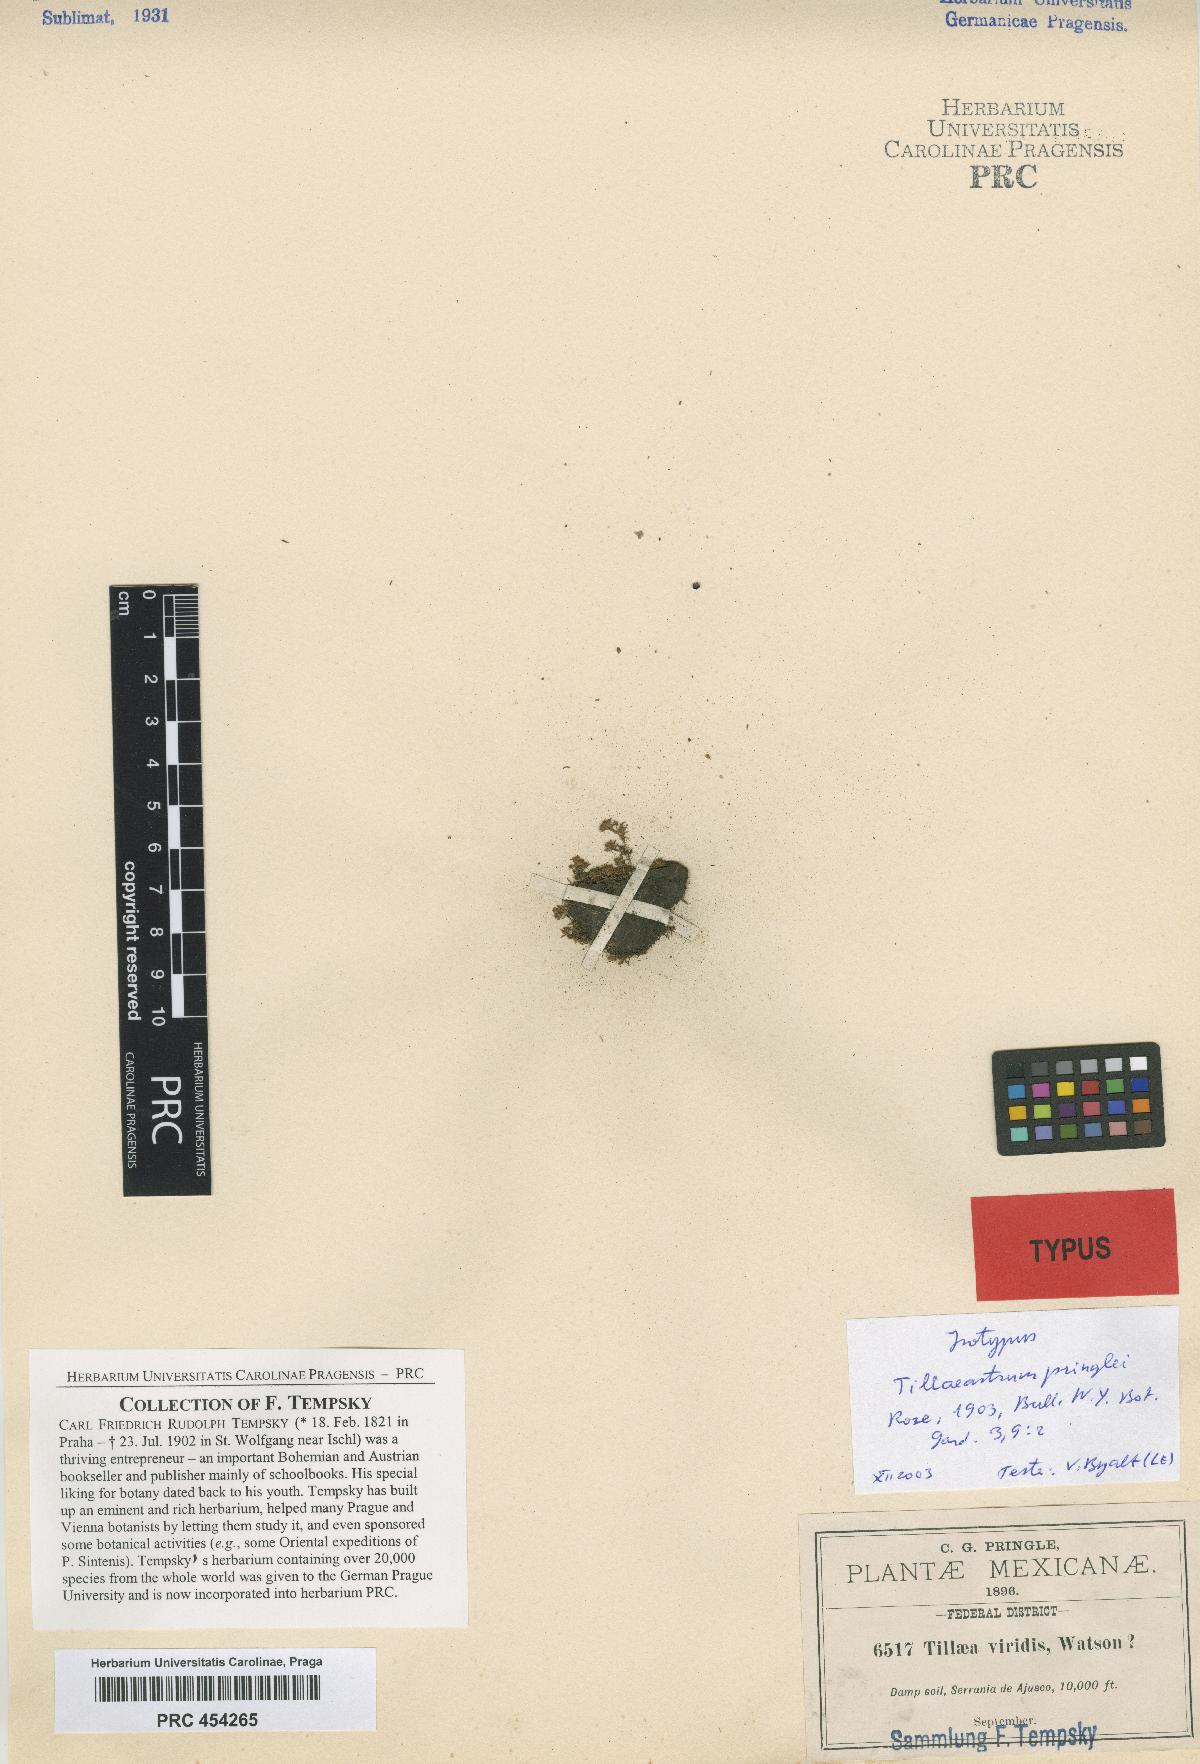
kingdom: Plantae
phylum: Tracheophyta
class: Magnoliopsida
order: Saxifragales
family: Crassulaceae
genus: Crassula
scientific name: Crassula aquatica
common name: Pigmyweed
